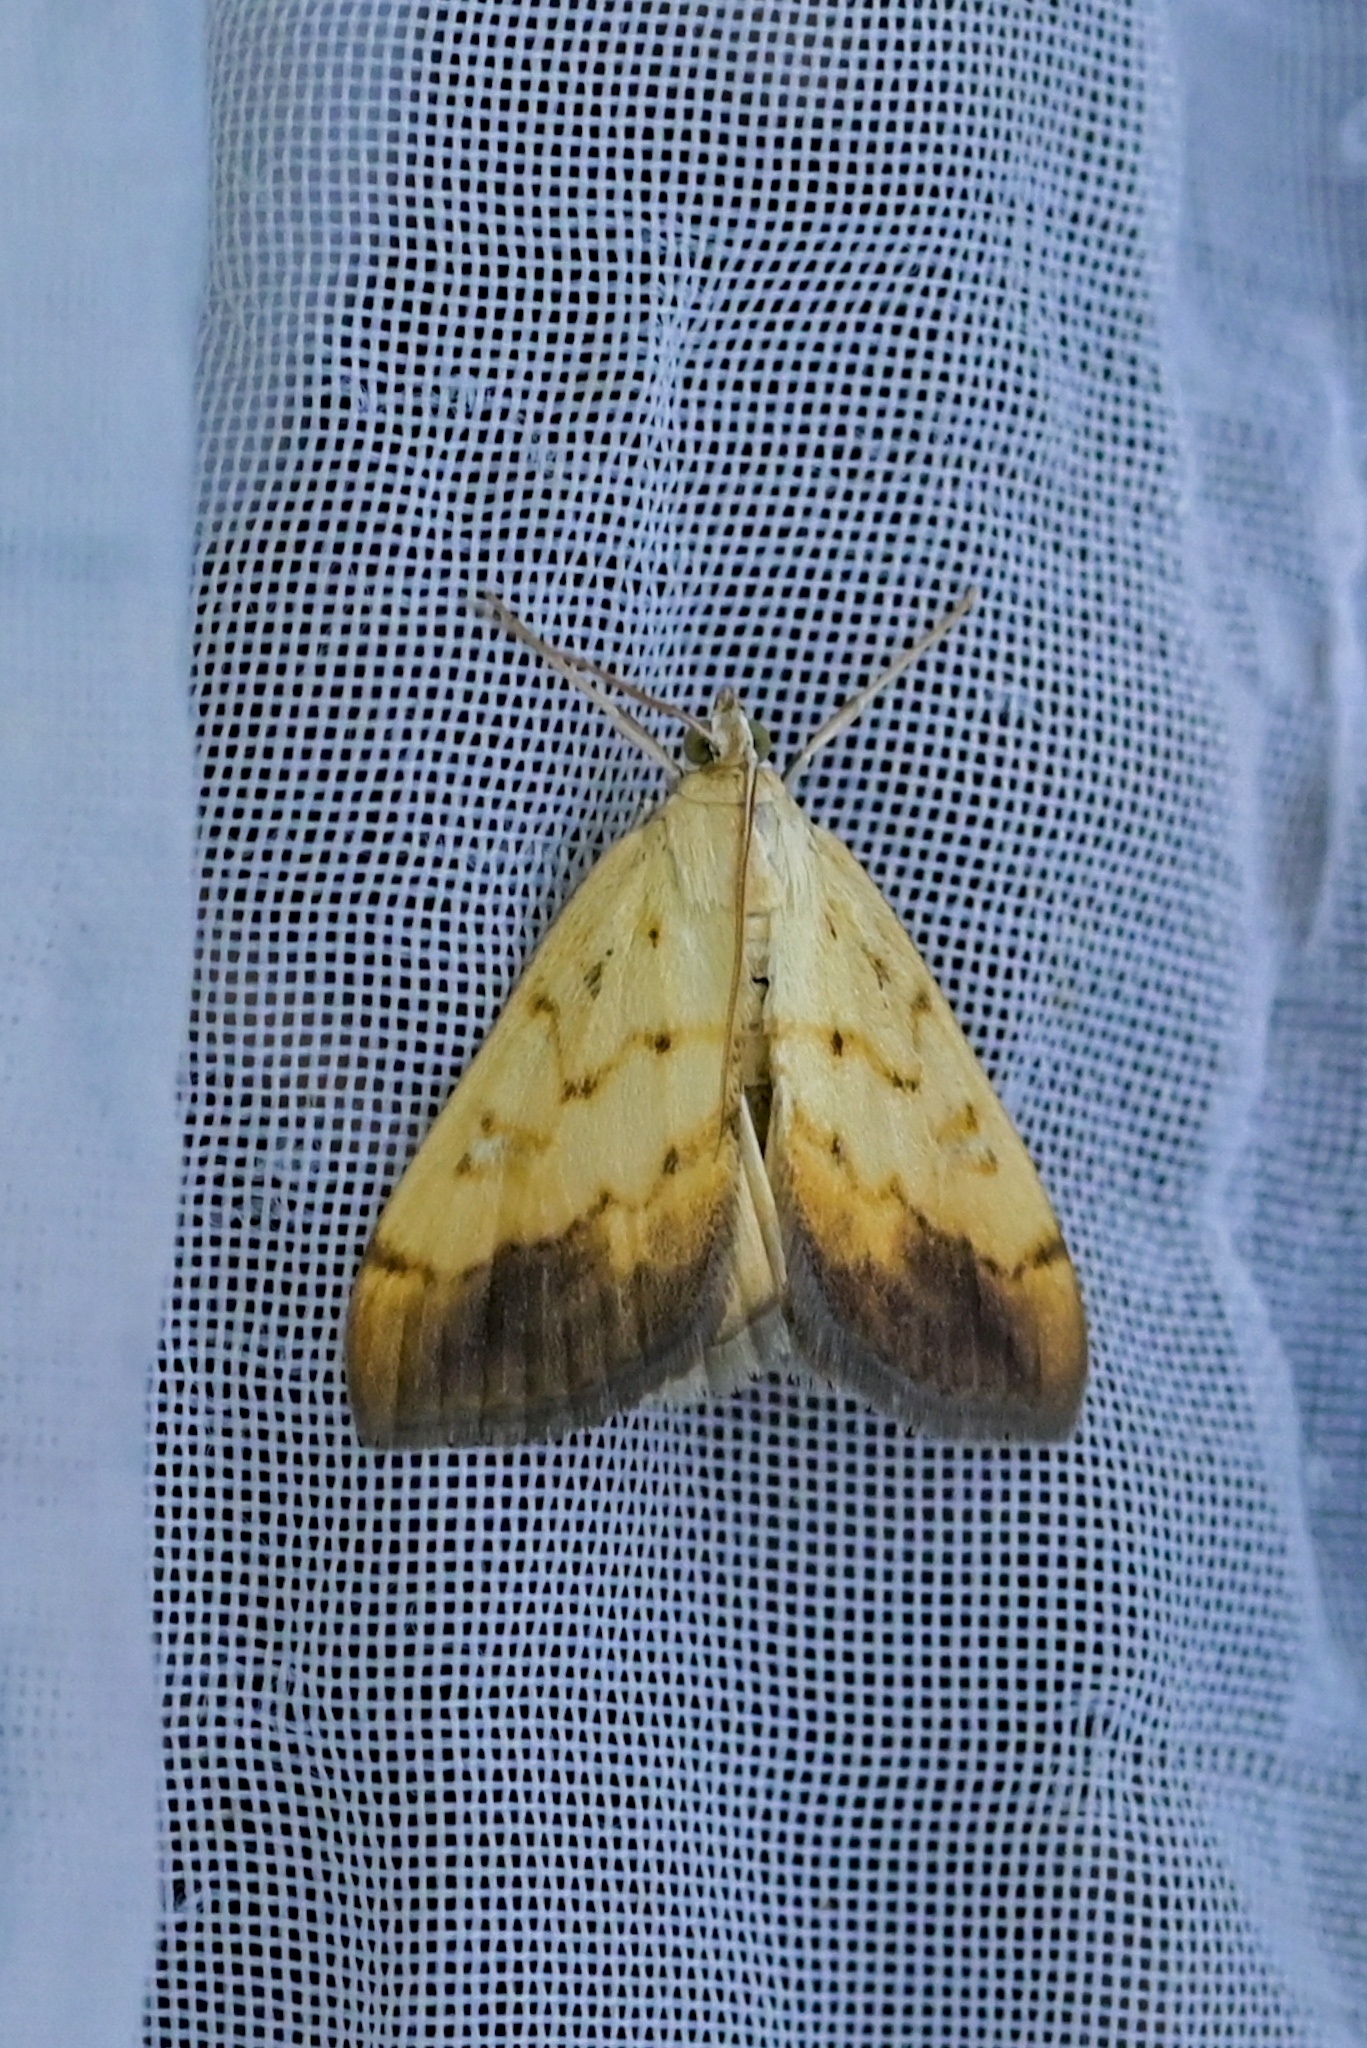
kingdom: Animalia
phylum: Arthropoda
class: Insecta
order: Lepidoptera
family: Crambidae
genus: Evergestis
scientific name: Evergestis extimalis
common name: Marbled yellow pearl
